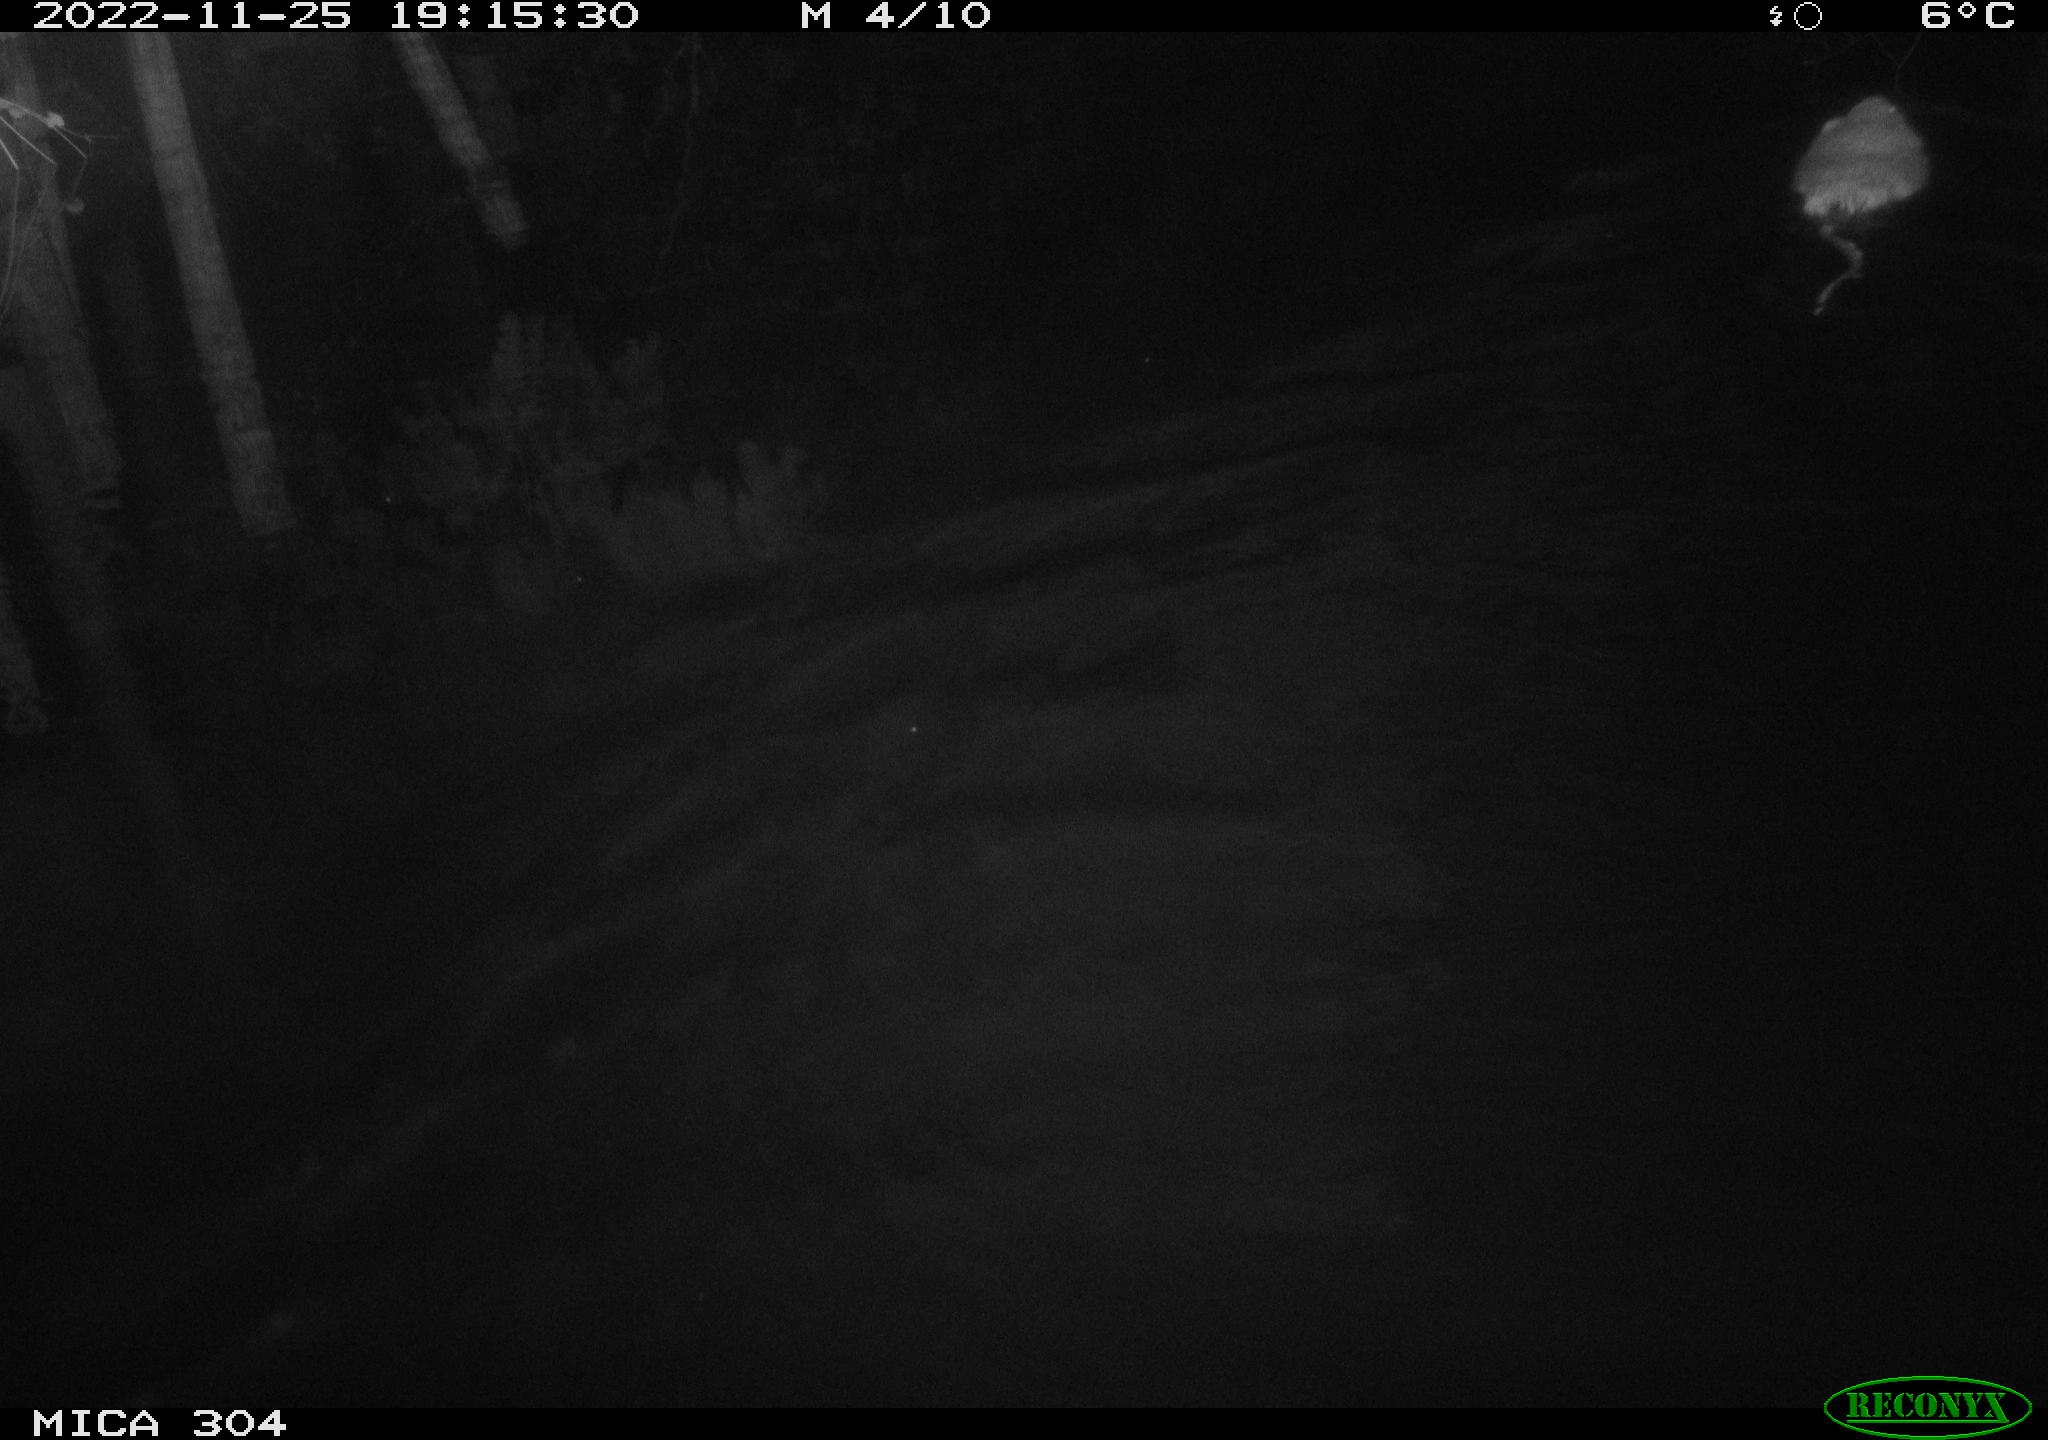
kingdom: Animalia
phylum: Chordata
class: Mammalia
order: Rodentia
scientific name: Rodentia
